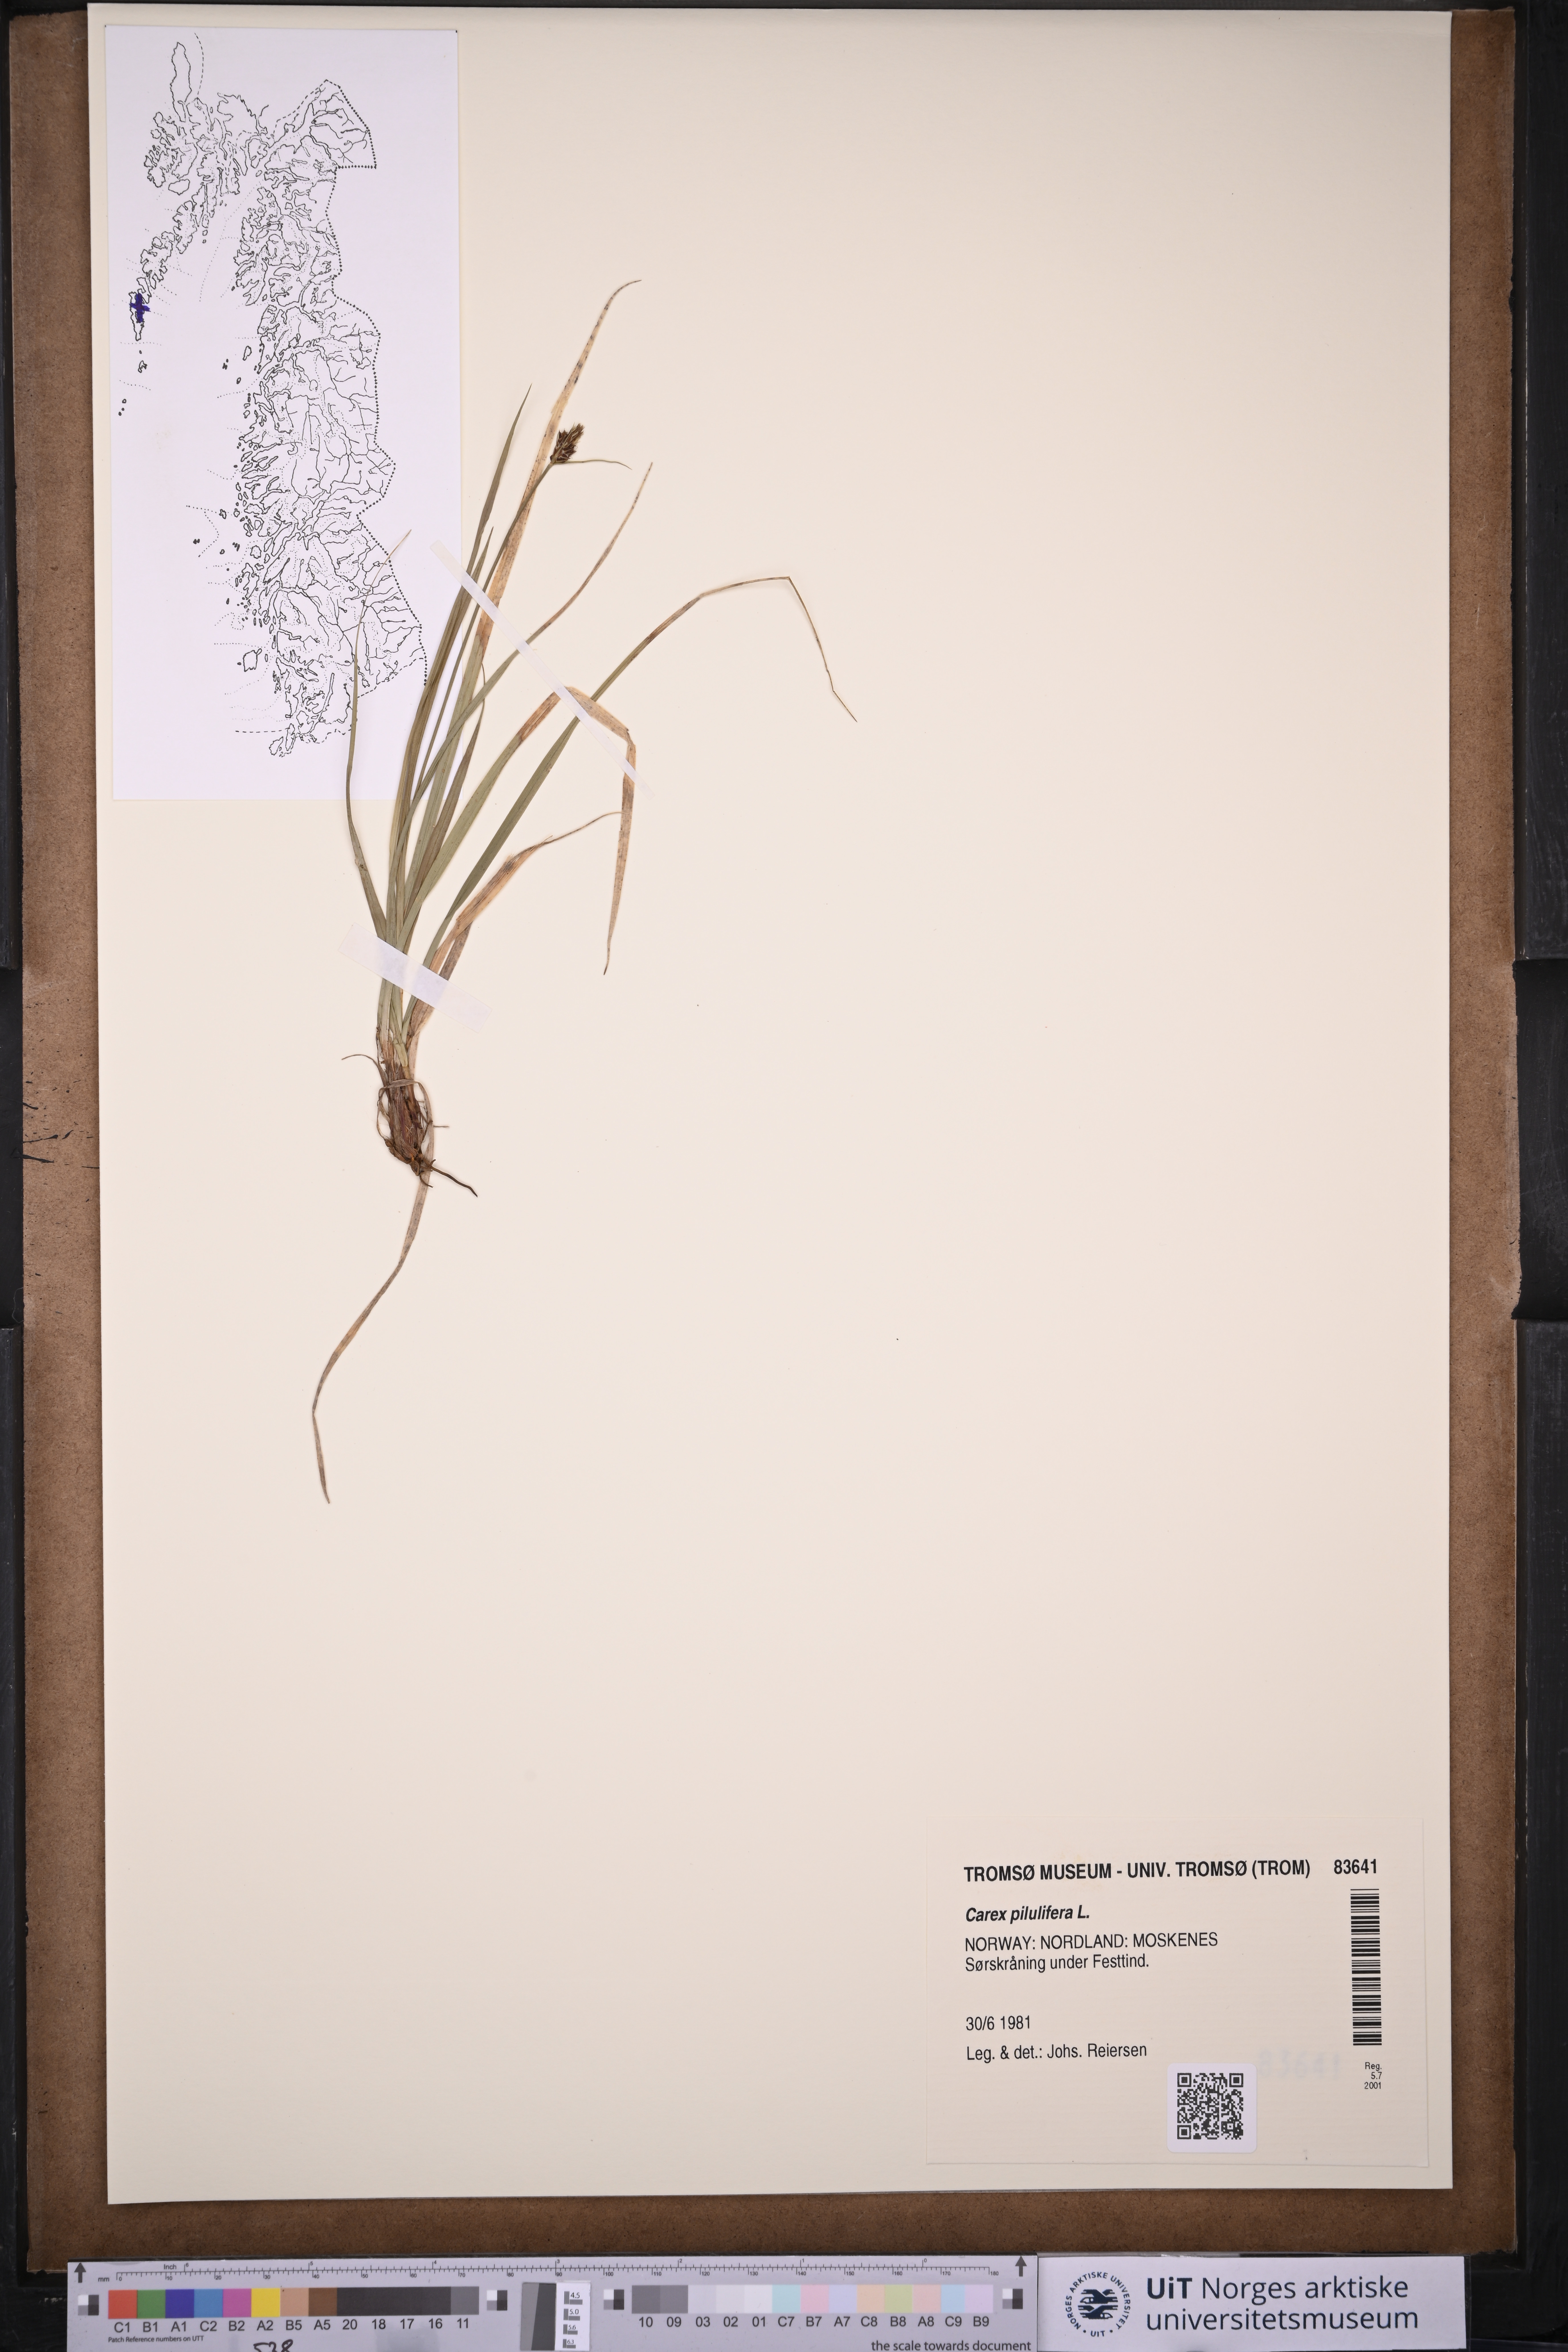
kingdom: Plantae
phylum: Tracheophyta
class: Liliopsida
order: Poales
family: Cyperaceae
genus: Carex
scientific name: Carex pilulifera
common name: Pill sedge
